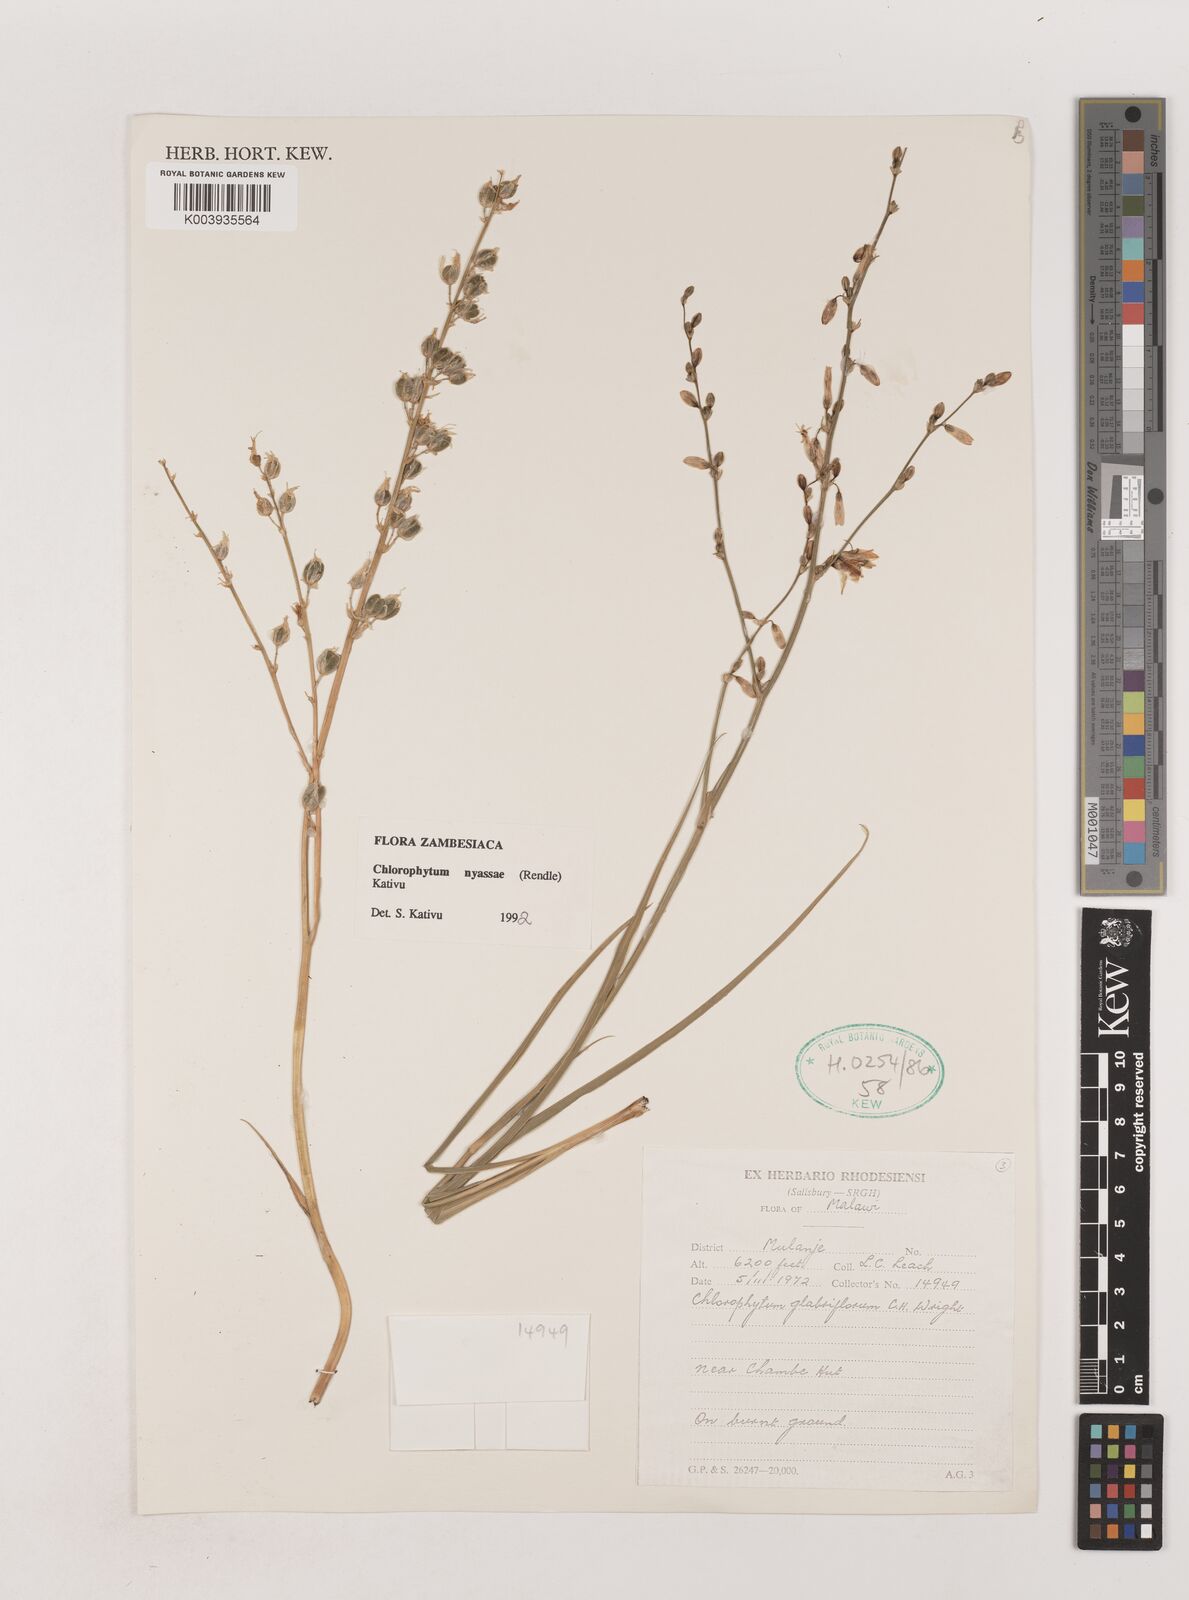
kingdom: Plantae
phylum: Tracheophyta
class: Liliopsida
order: Asparagales
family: Asparagaceae
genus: Chlorophytum
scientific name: Chlorophytum nyasae
